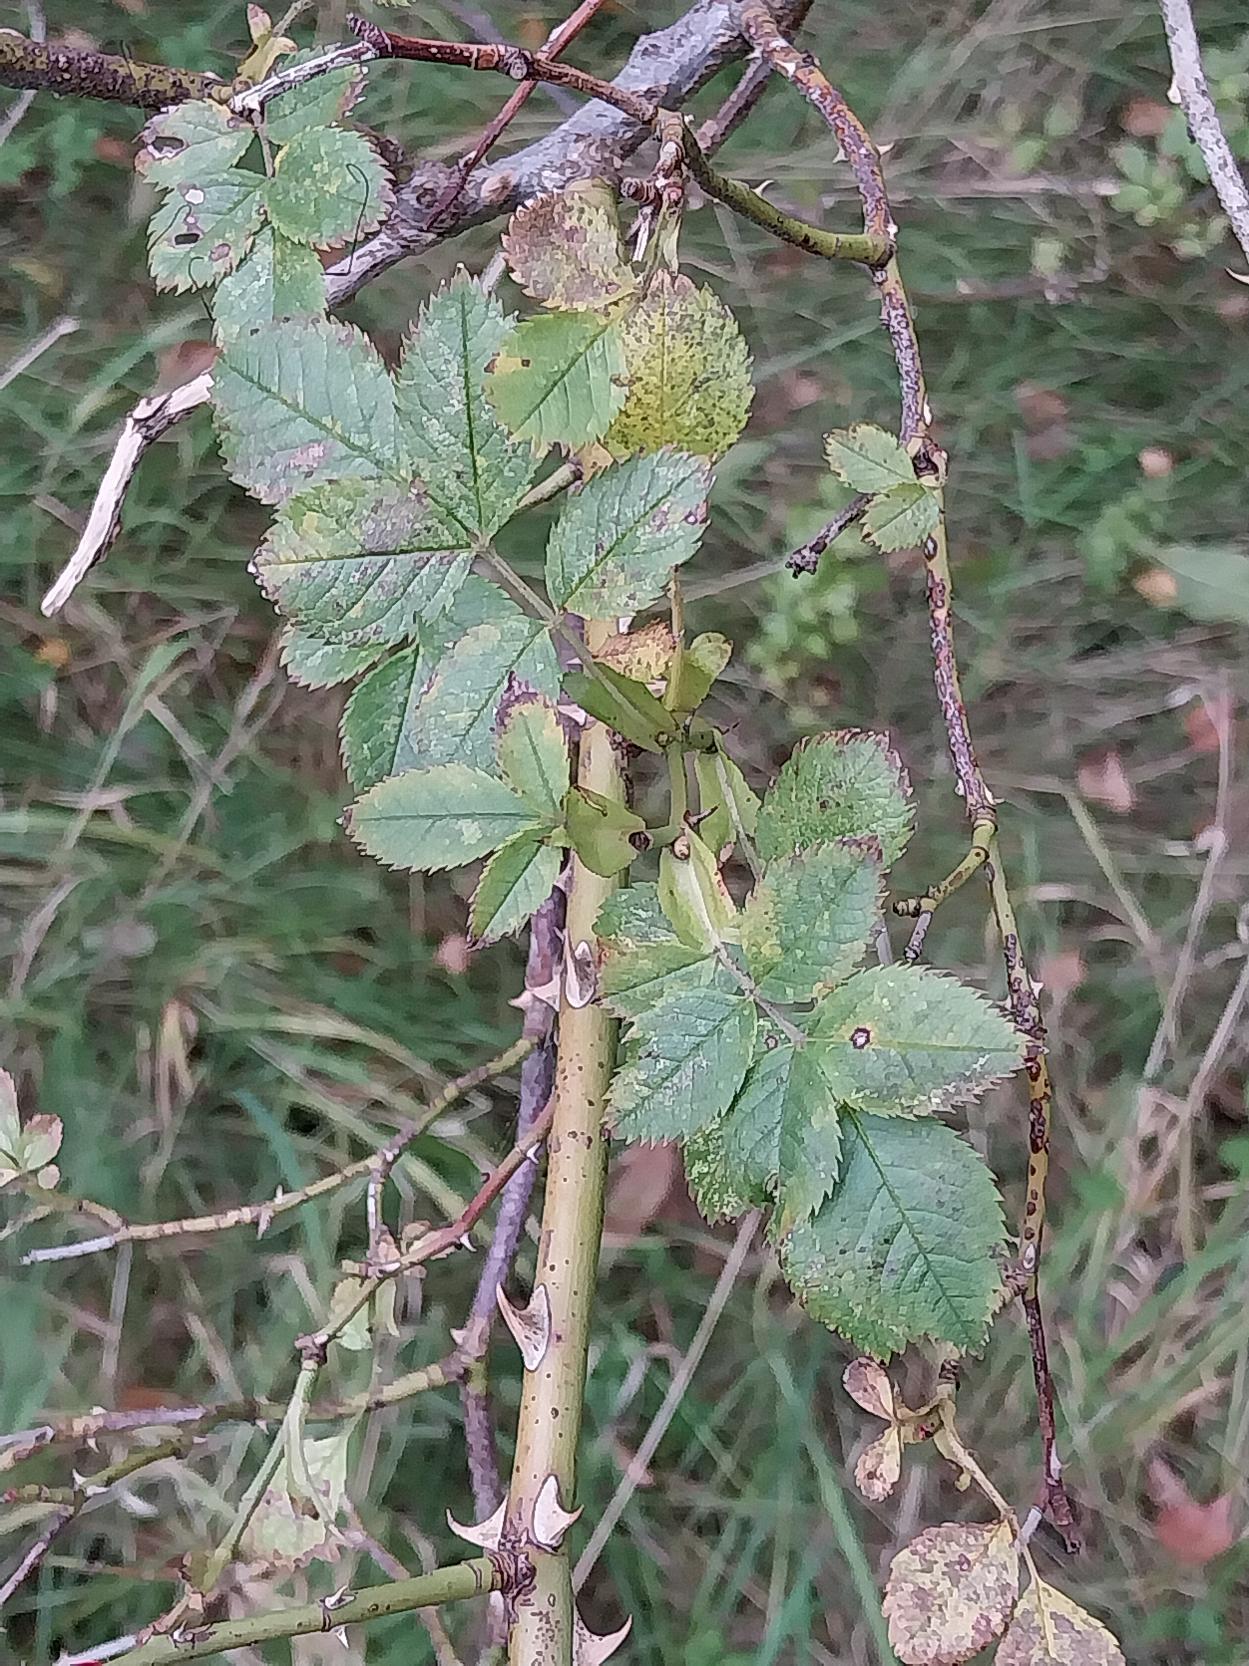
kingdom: Plantae
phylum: Tracheophyta
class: Magnoliopsida
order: Rosales
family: Rosaceae
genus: Rosa
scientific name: Rosa canina
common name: Glat hunde-rose
